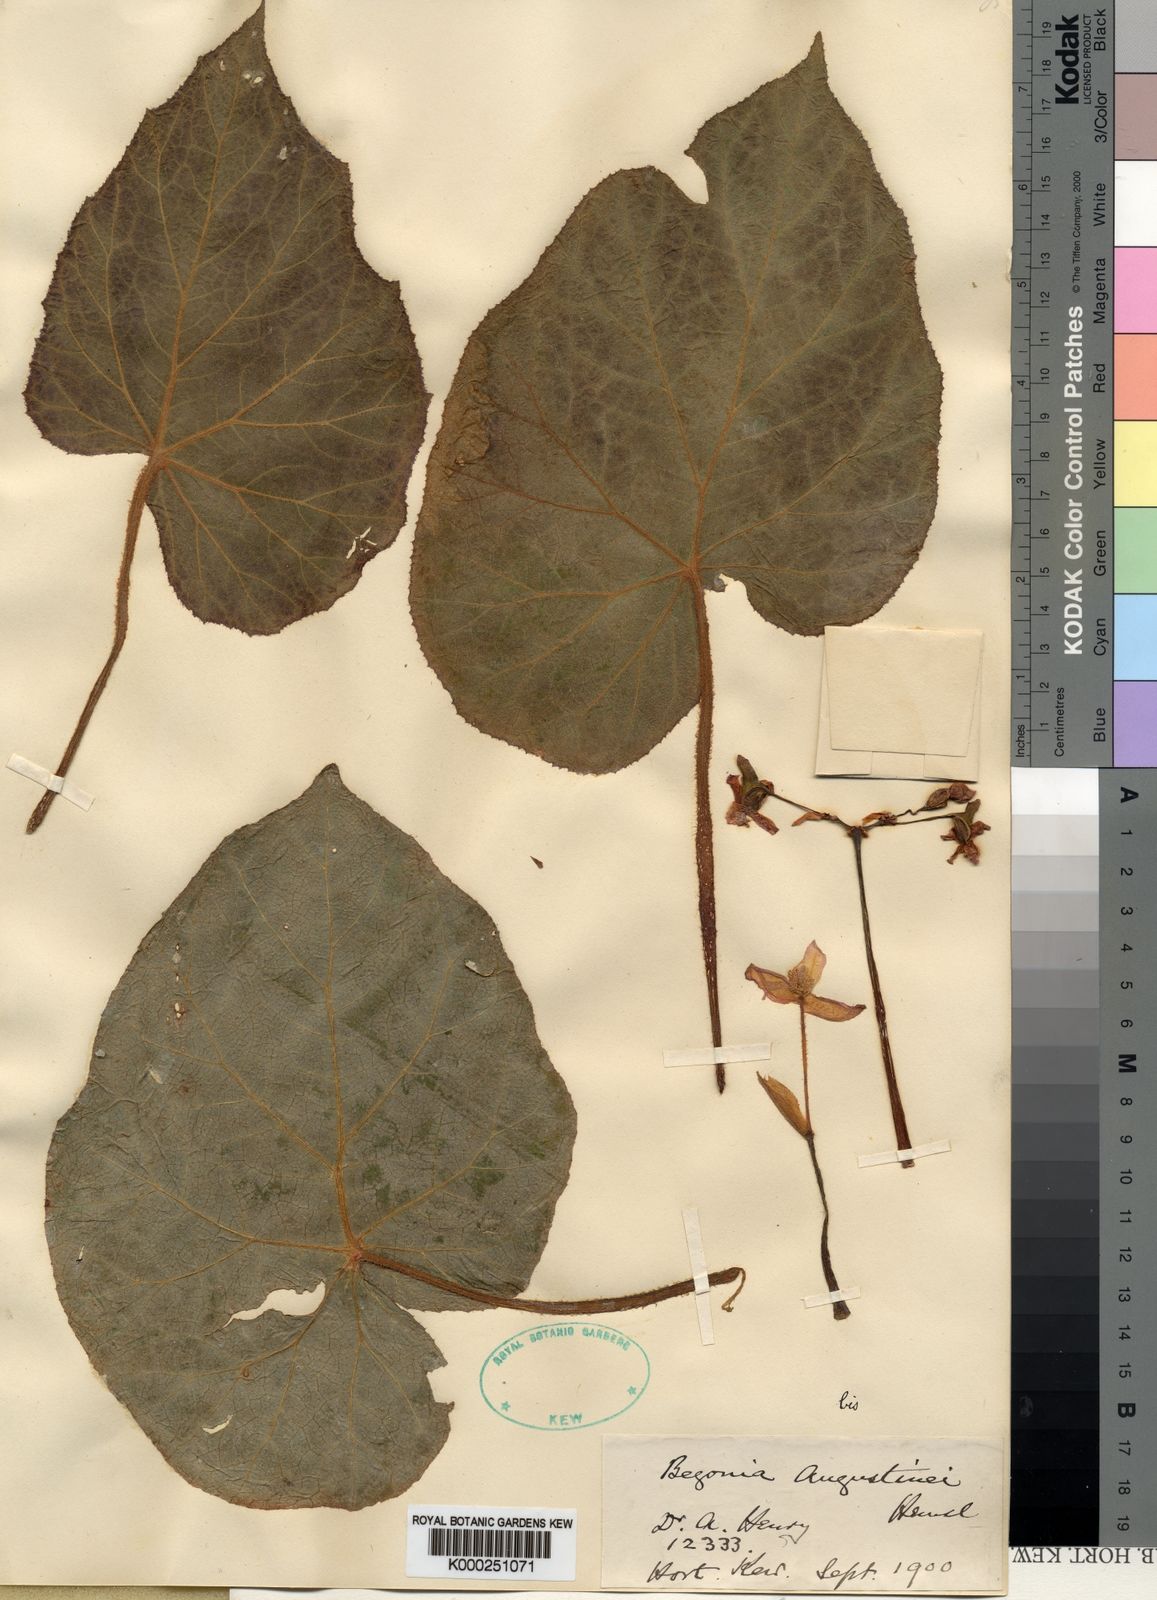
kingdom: Plantae
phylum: Tracheophyta
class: Magnoliopsida
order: Cucurbitales
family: Begoniaceae
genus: Begonia
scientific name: Begonia augustinei
